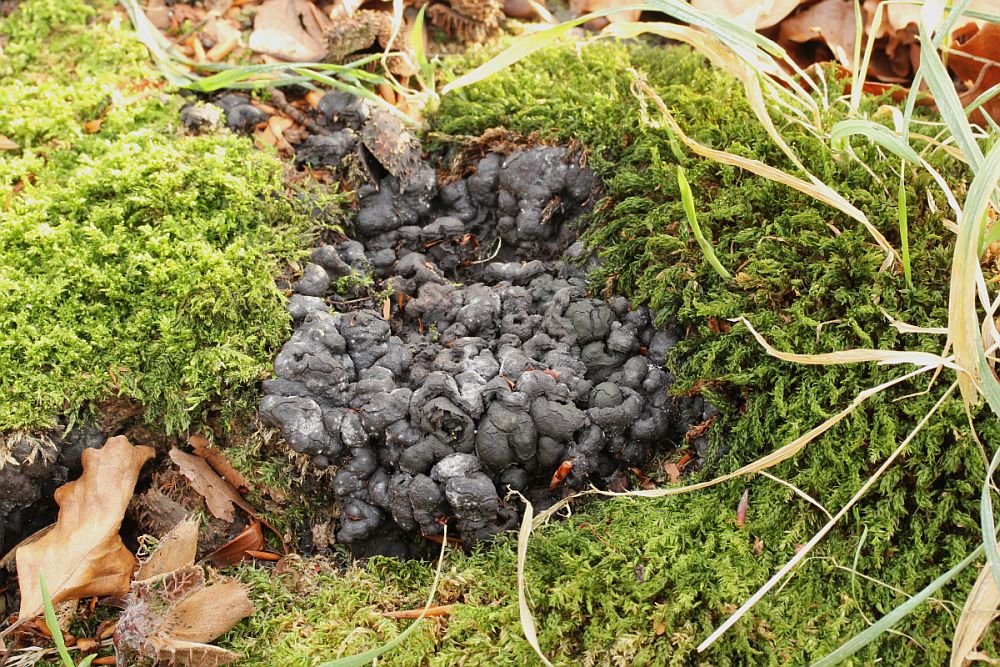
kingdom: Fungi
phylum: Ascomycota
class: Sordariomycetes
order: Xylariales
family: Xylariaceae
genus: Kretzschmaria
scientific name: Kretzschmaria deusta
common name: stor kulsvamp
